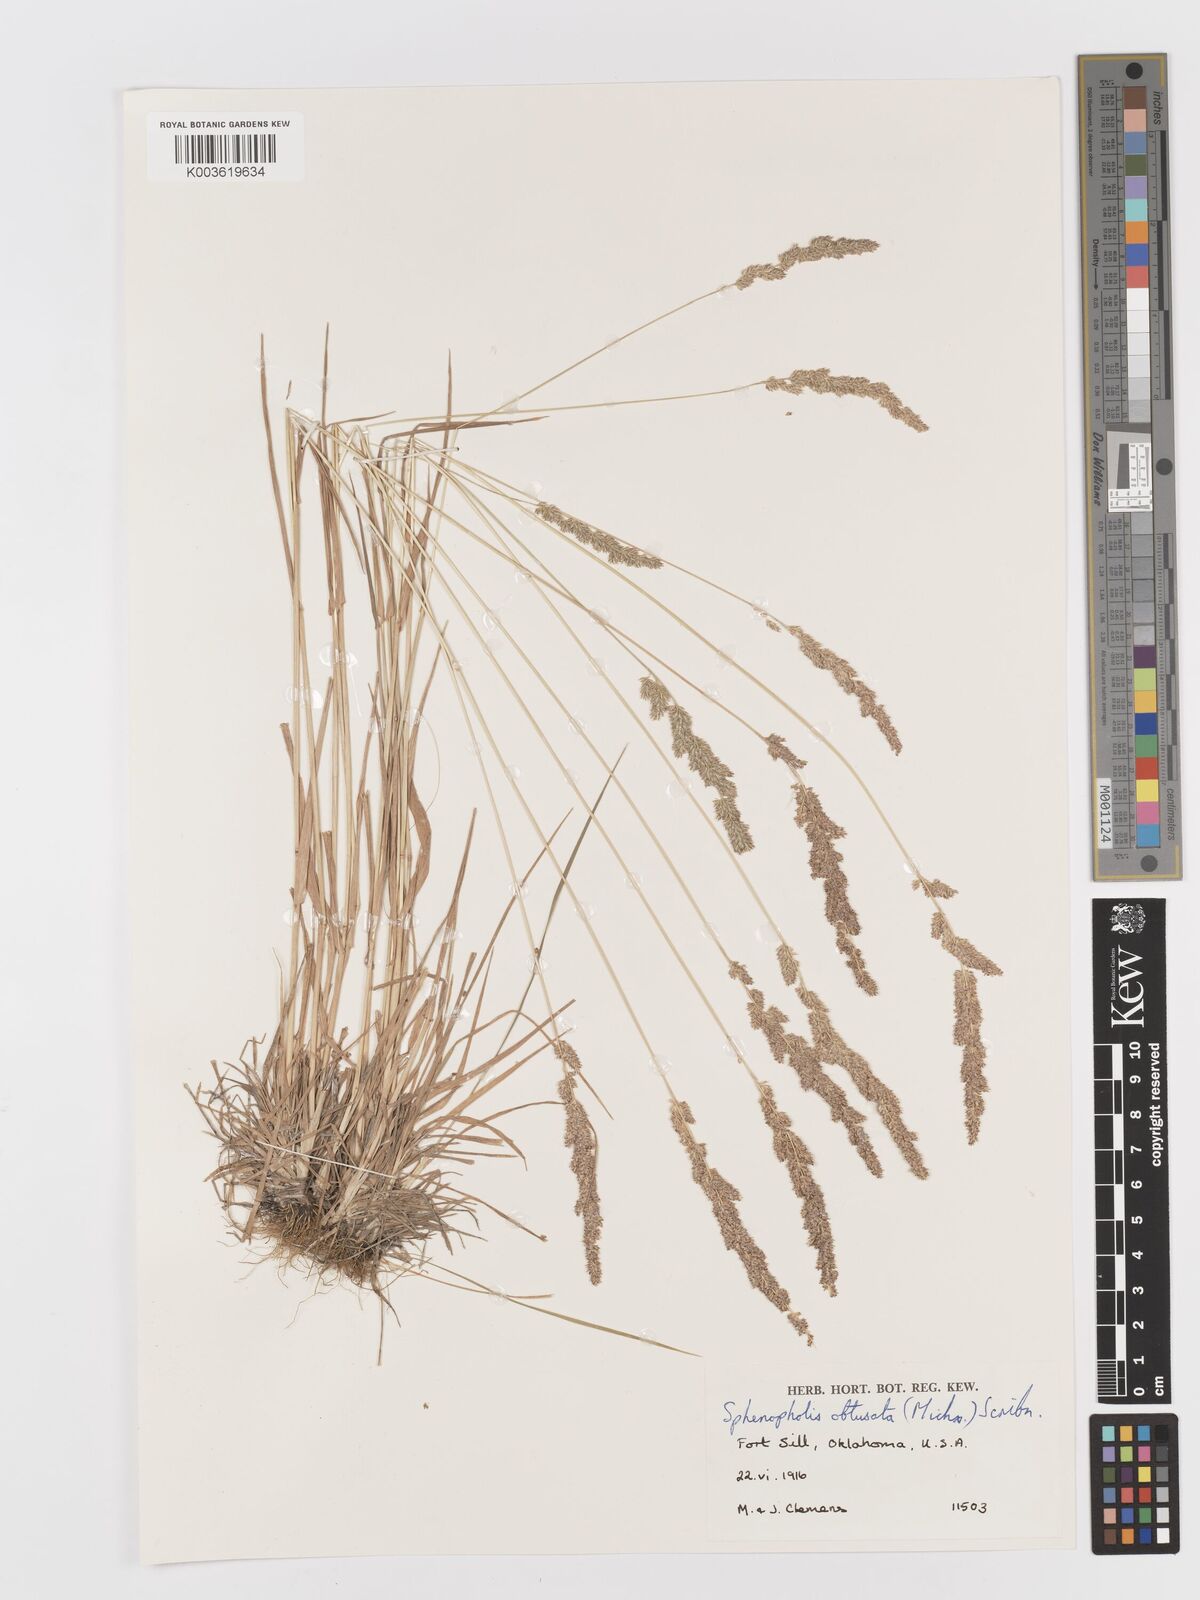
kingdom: Plantae
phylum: Tracheophyta
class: Liliopsida
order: Poales
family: Poaceae
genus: Sphenopholis
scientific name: Sphenopholis obtusata
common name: Prairie grass
